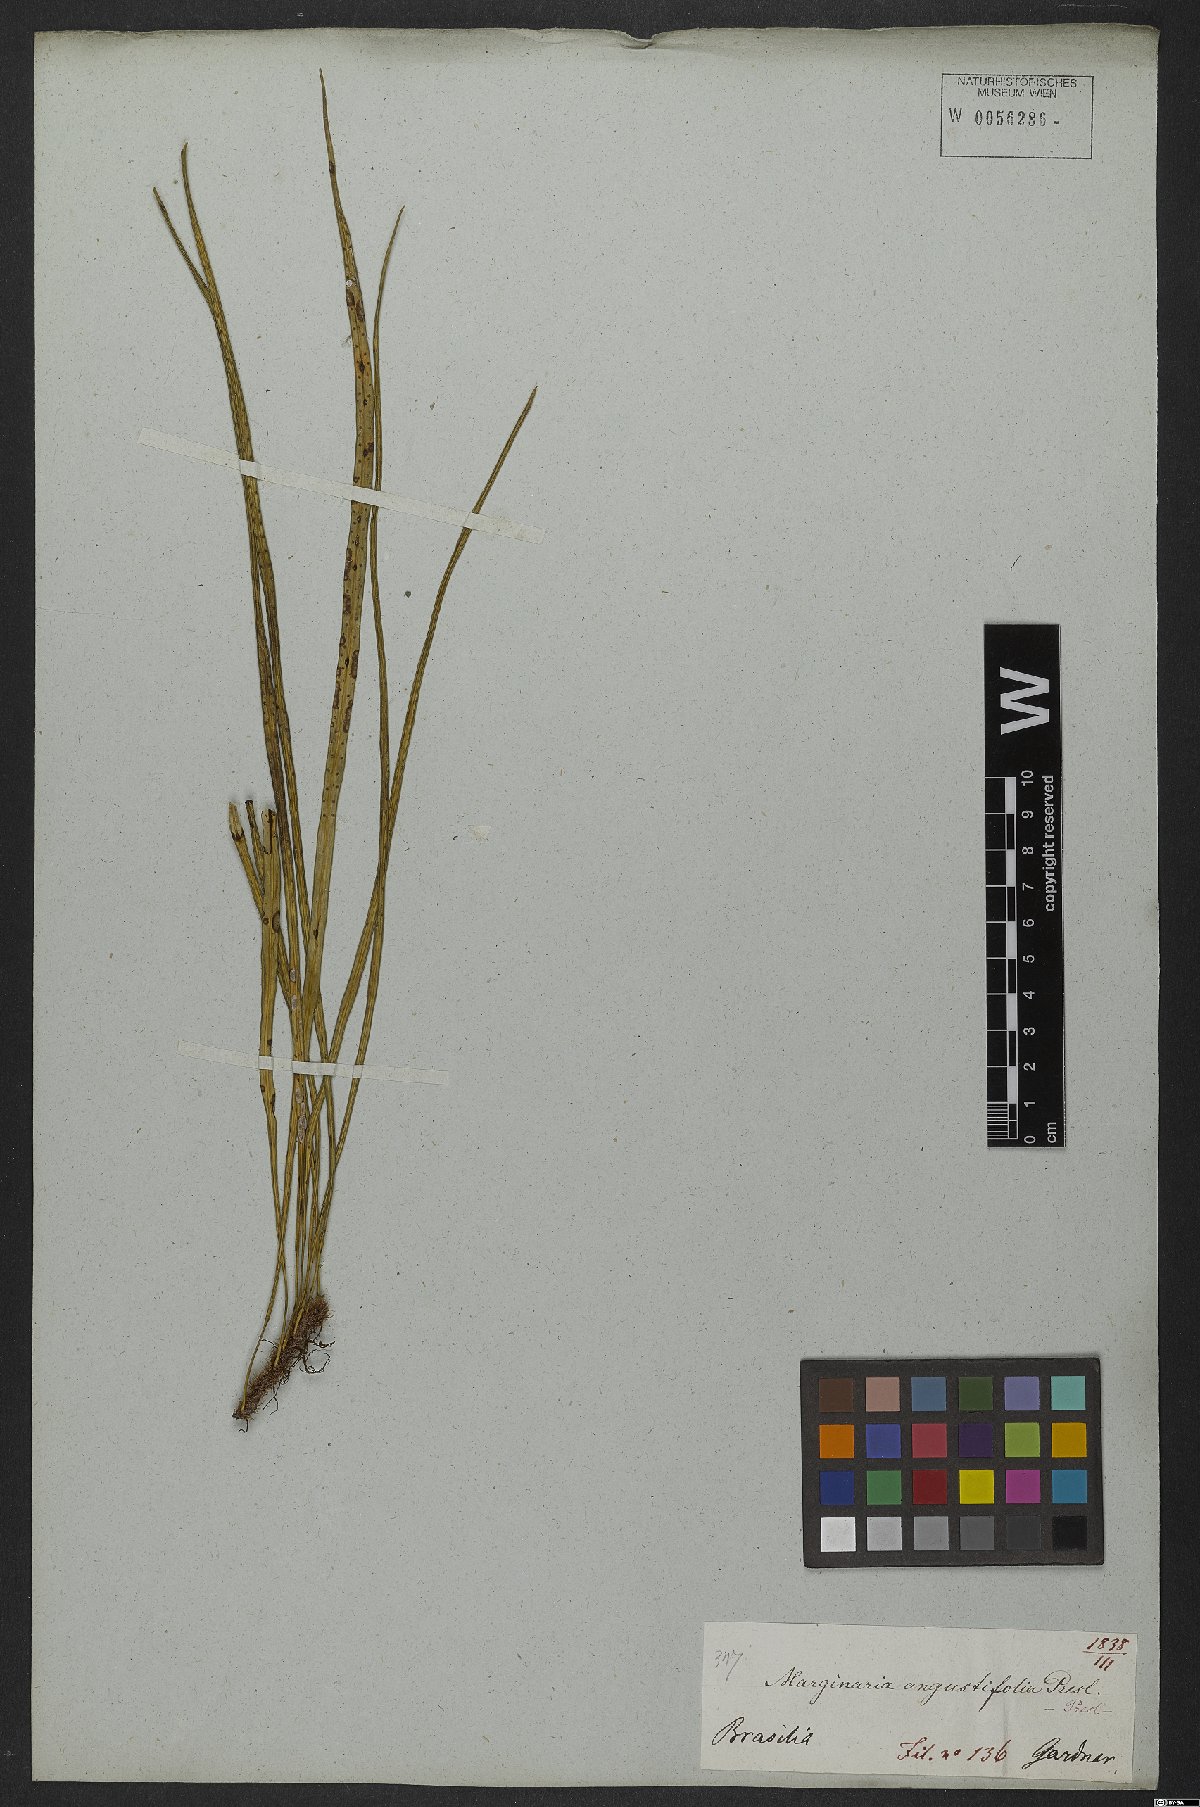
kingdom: Plantae
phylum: Tracheophyta
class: Polypodiopsida
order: Polypodiales
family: Polypodiaceae
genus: Campyloneurum
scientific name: Campyloneurum angustifolium
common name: Narrow-leaf strap fern
